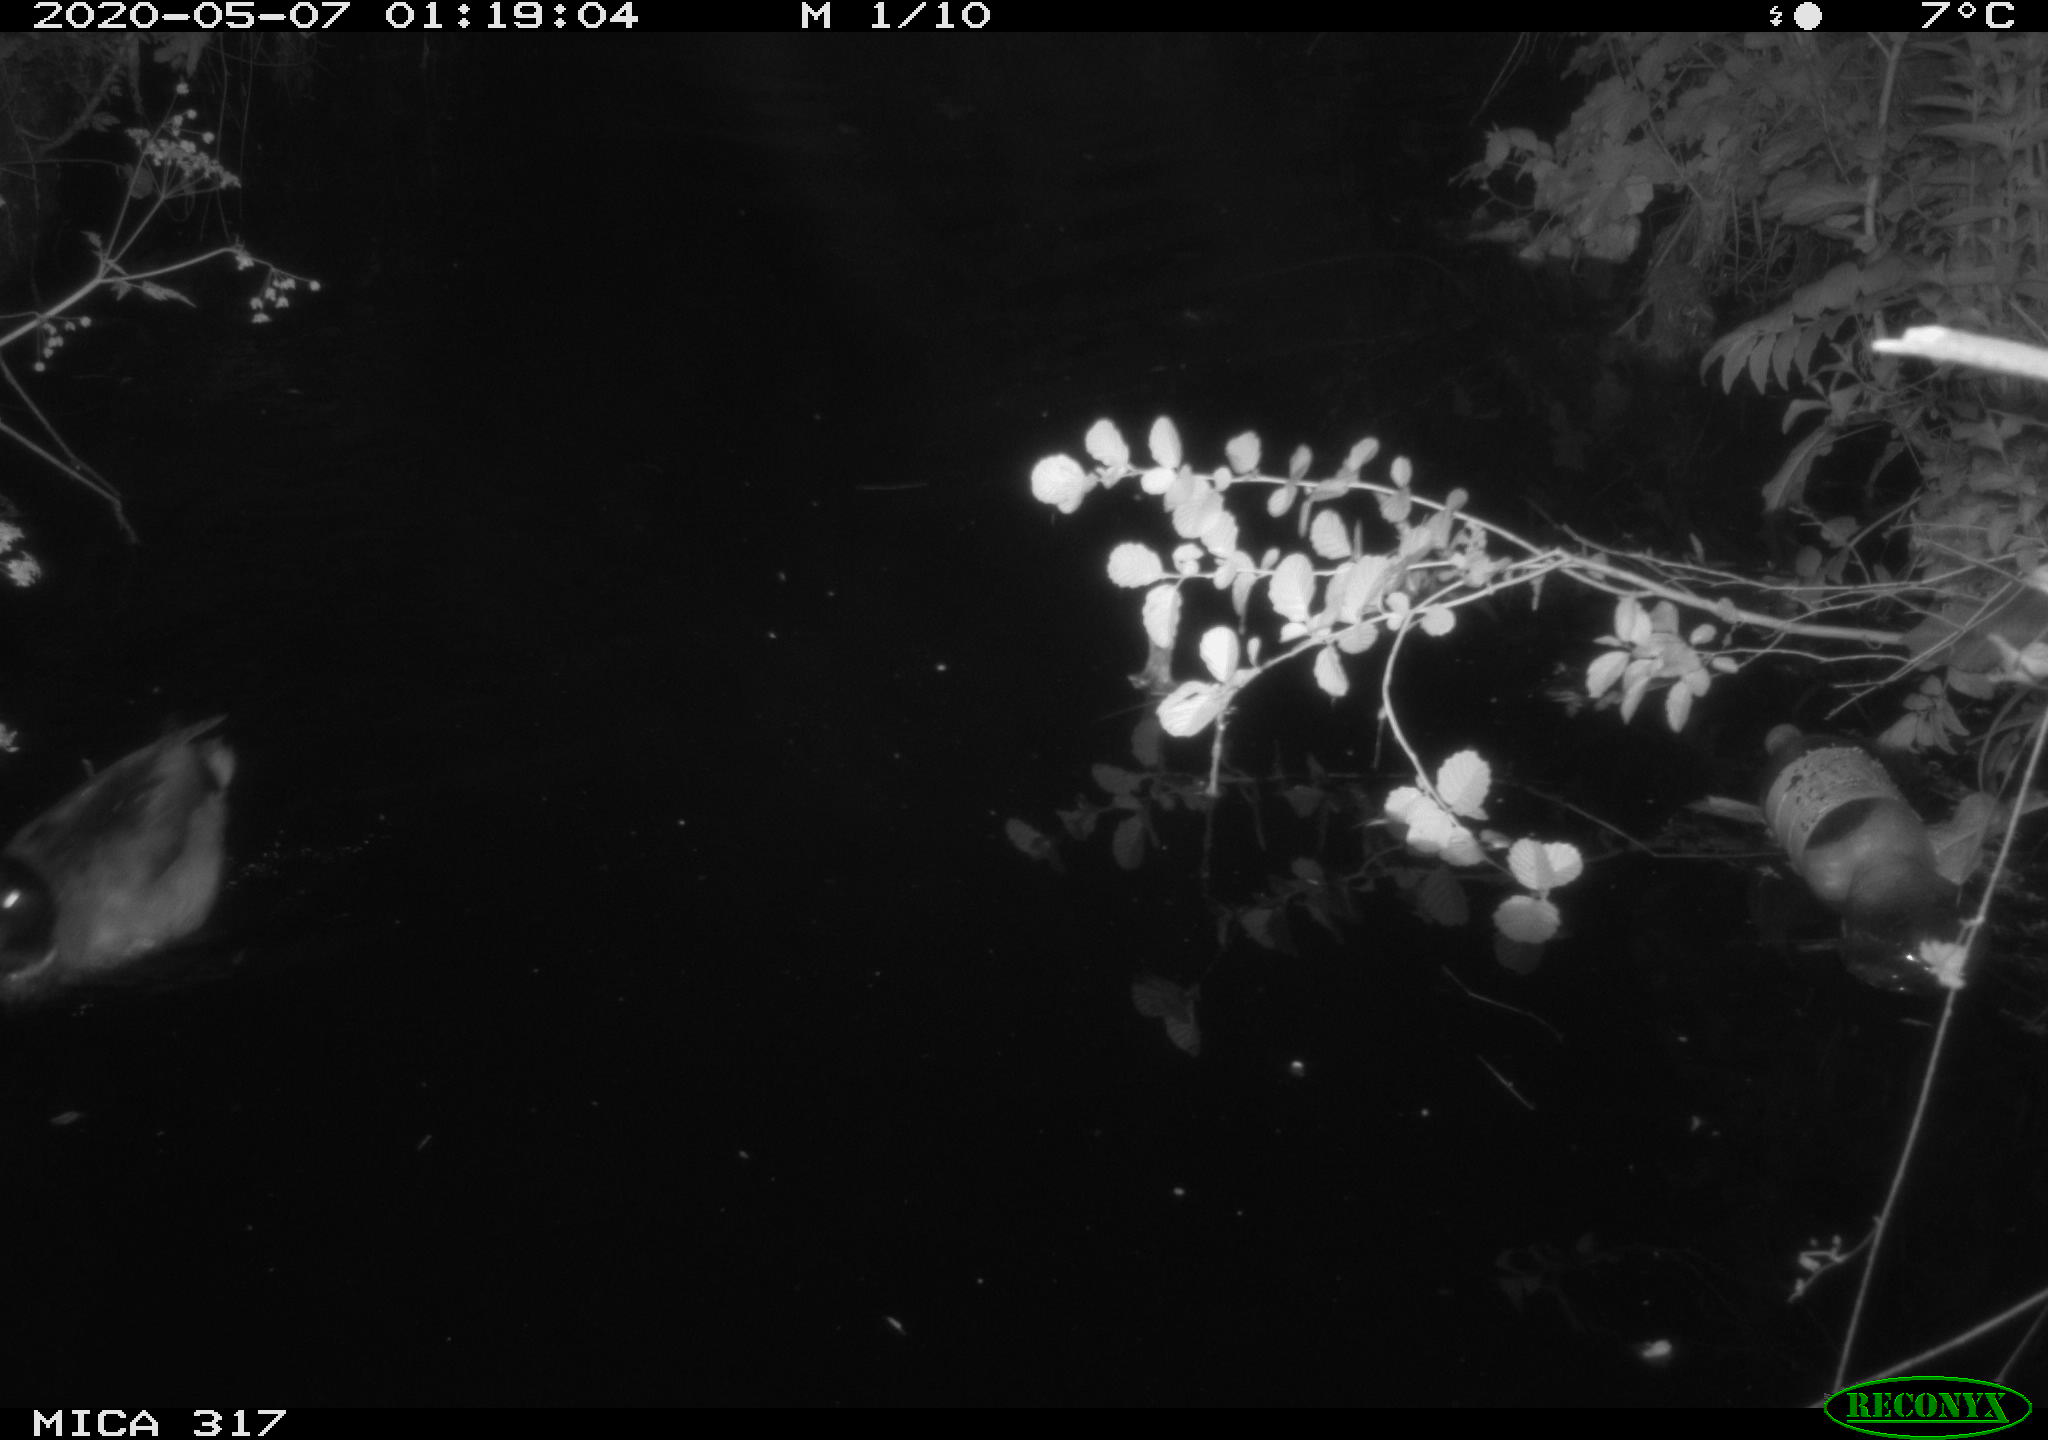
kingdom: Animalia
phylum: Chordata
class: Aves
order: Anseriformes
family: Anatidae
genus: Anas
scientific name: Anas platyrhynchos
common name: Mallard
